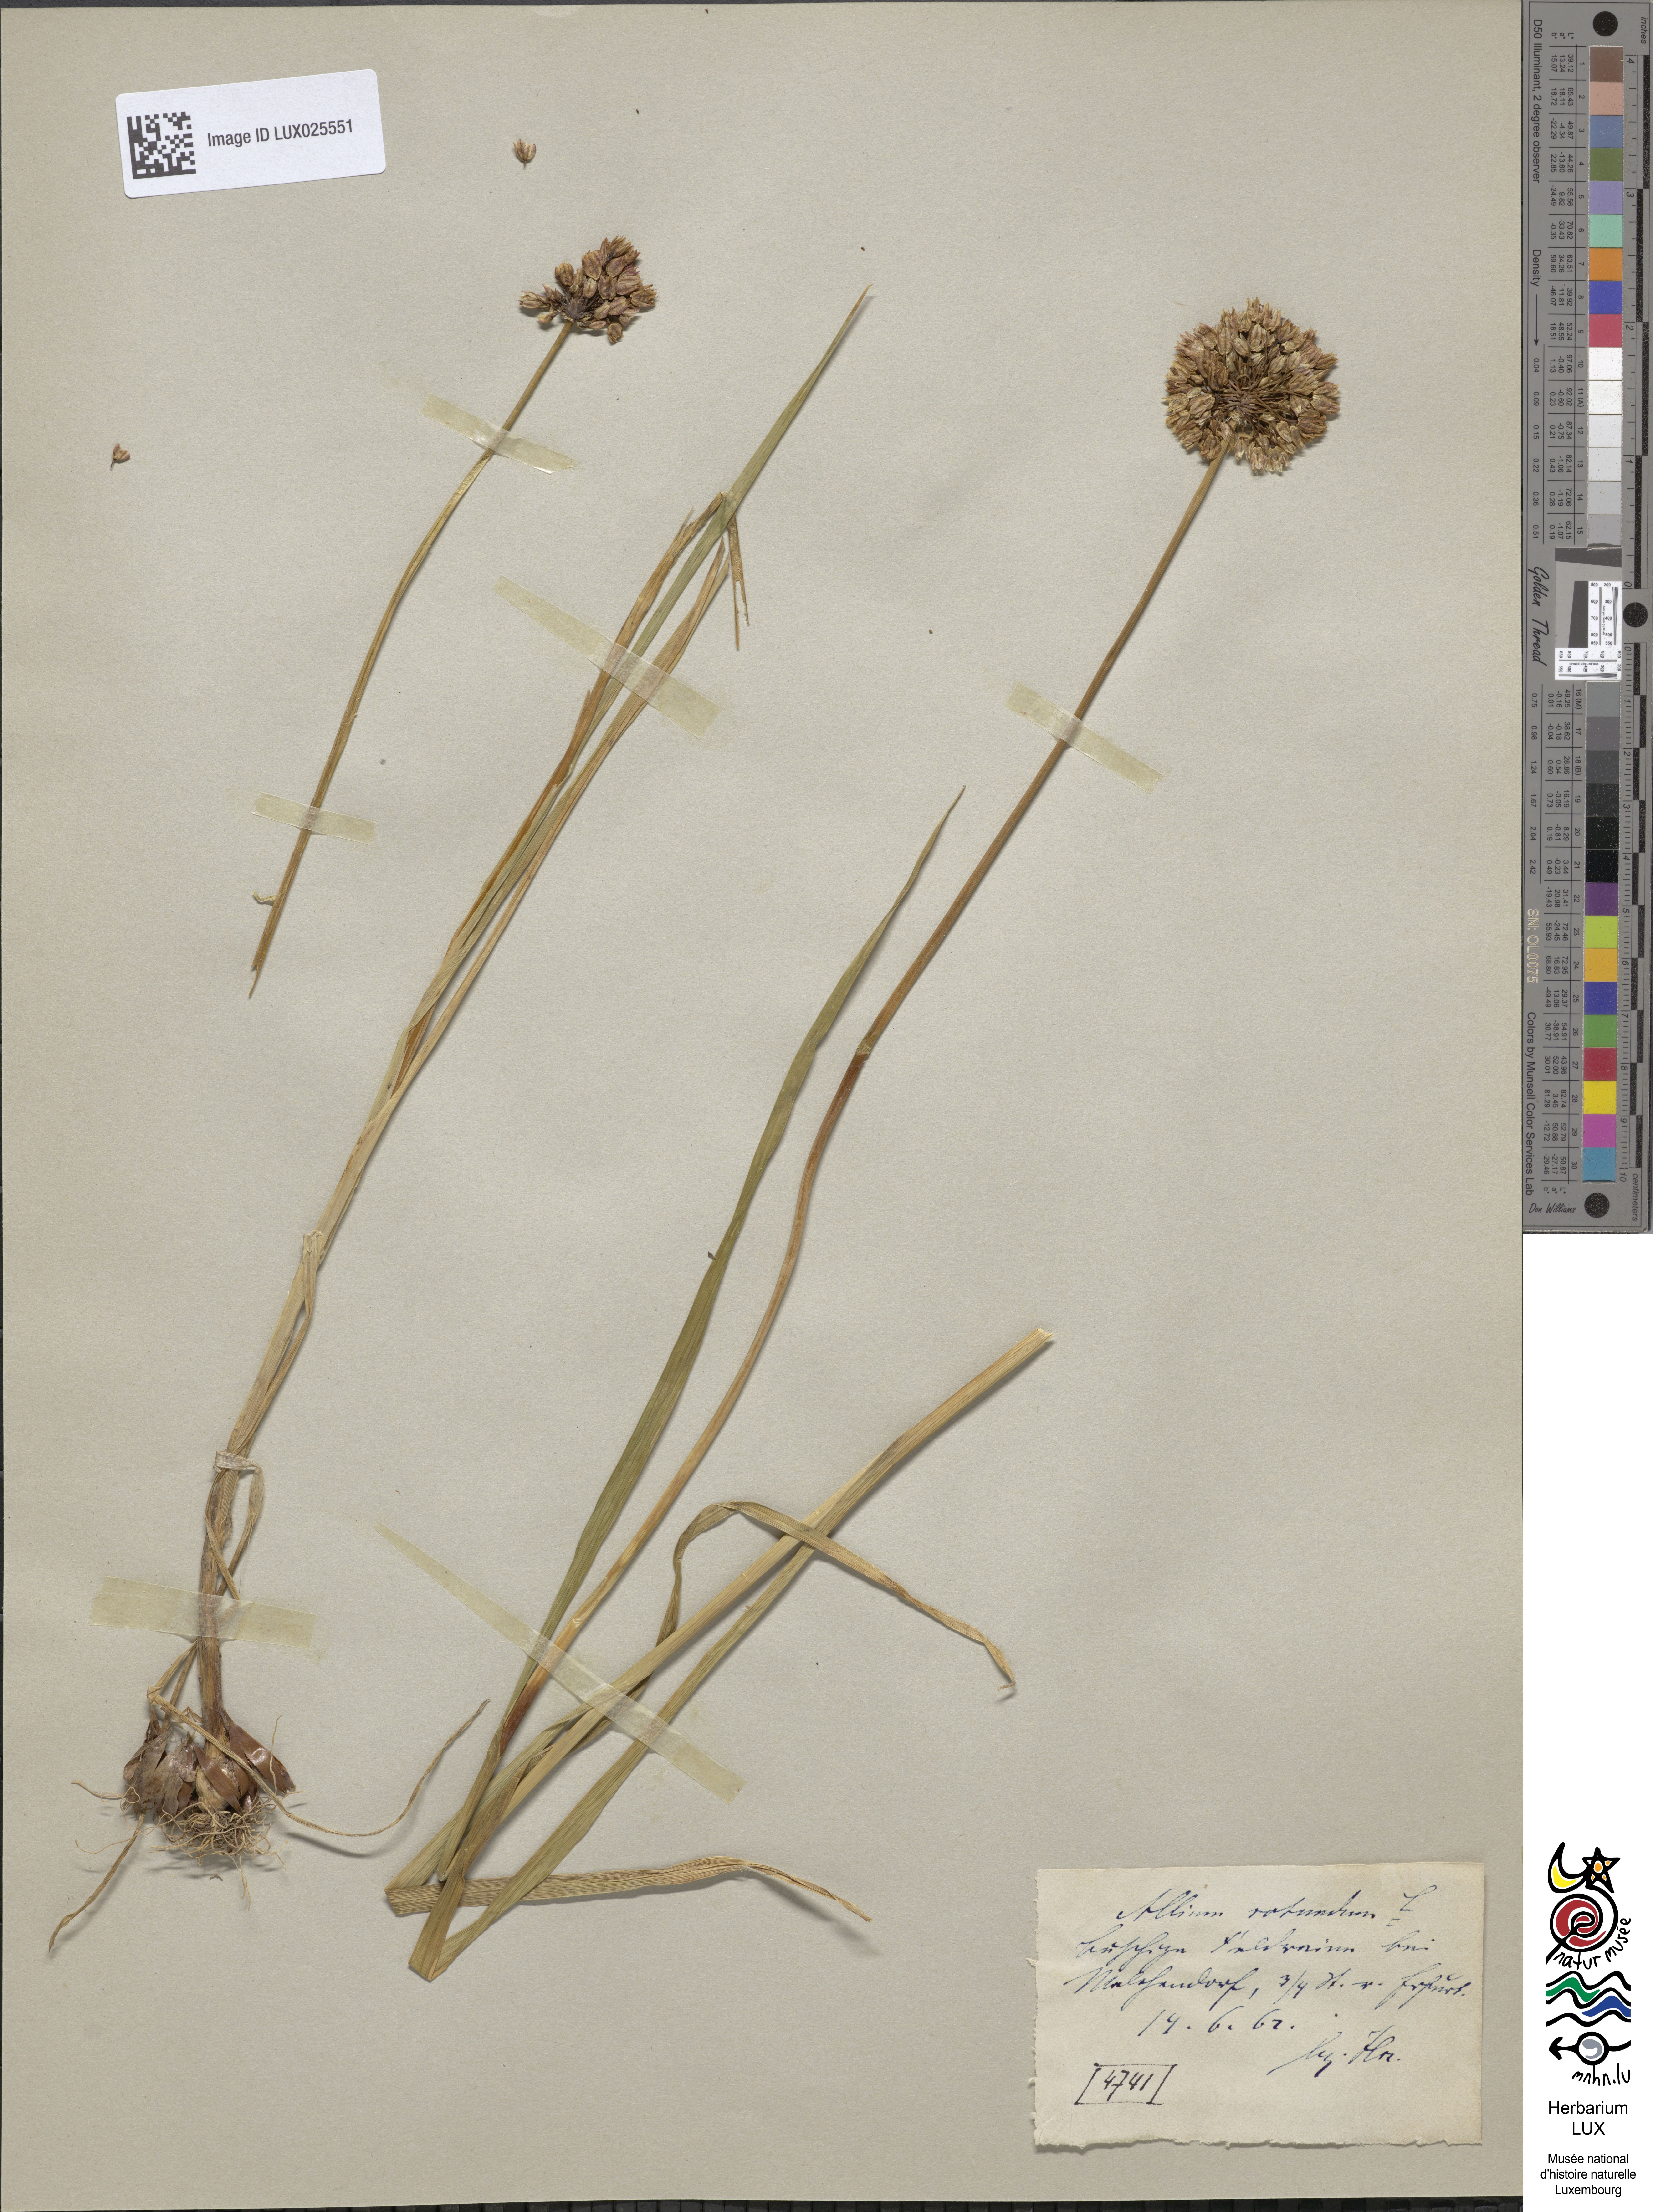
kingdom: Plantae
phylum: Tracheophyta
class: Liliopsida
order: Asparagales
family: Amaryllidaceae
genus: Allium
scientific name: Allium rotundum
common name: Sand leek
